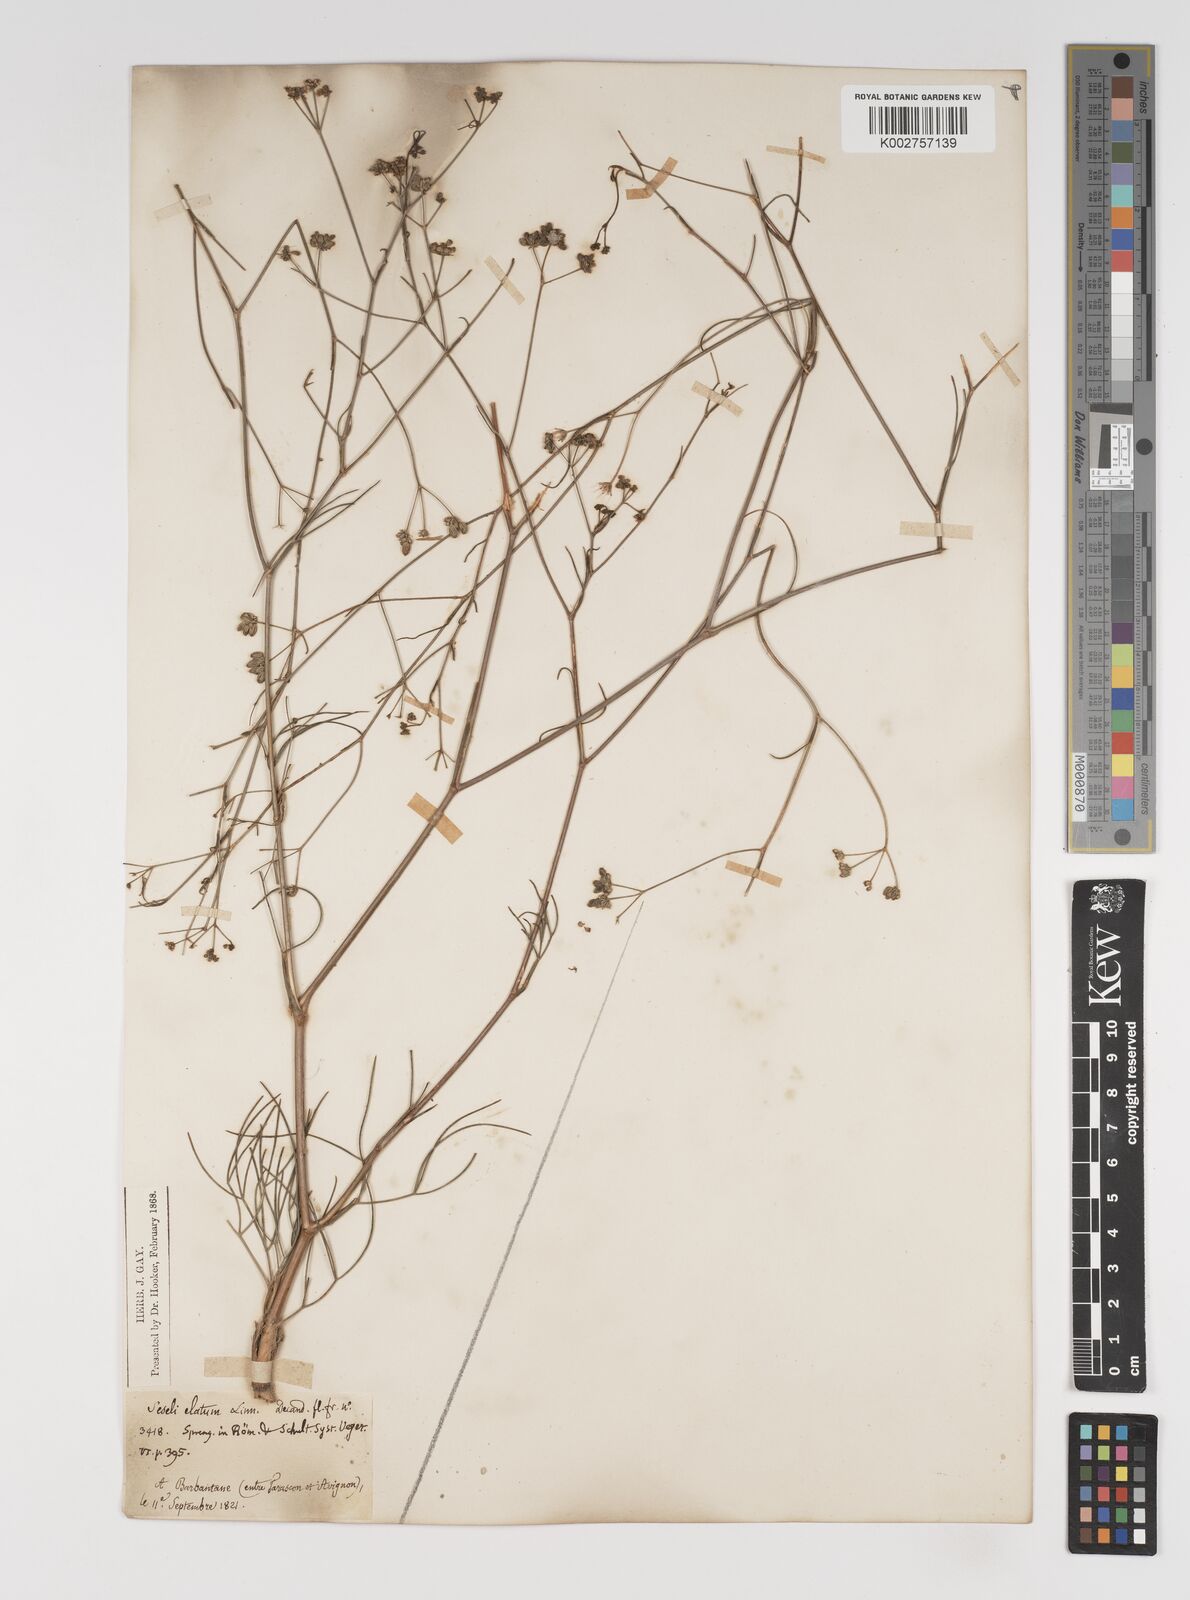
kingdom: Plantae
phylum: Tracheophyta
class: Magnoliopsida
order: Apiales
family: Apiaceae
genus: Seseli
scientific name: Seseli longifolium
